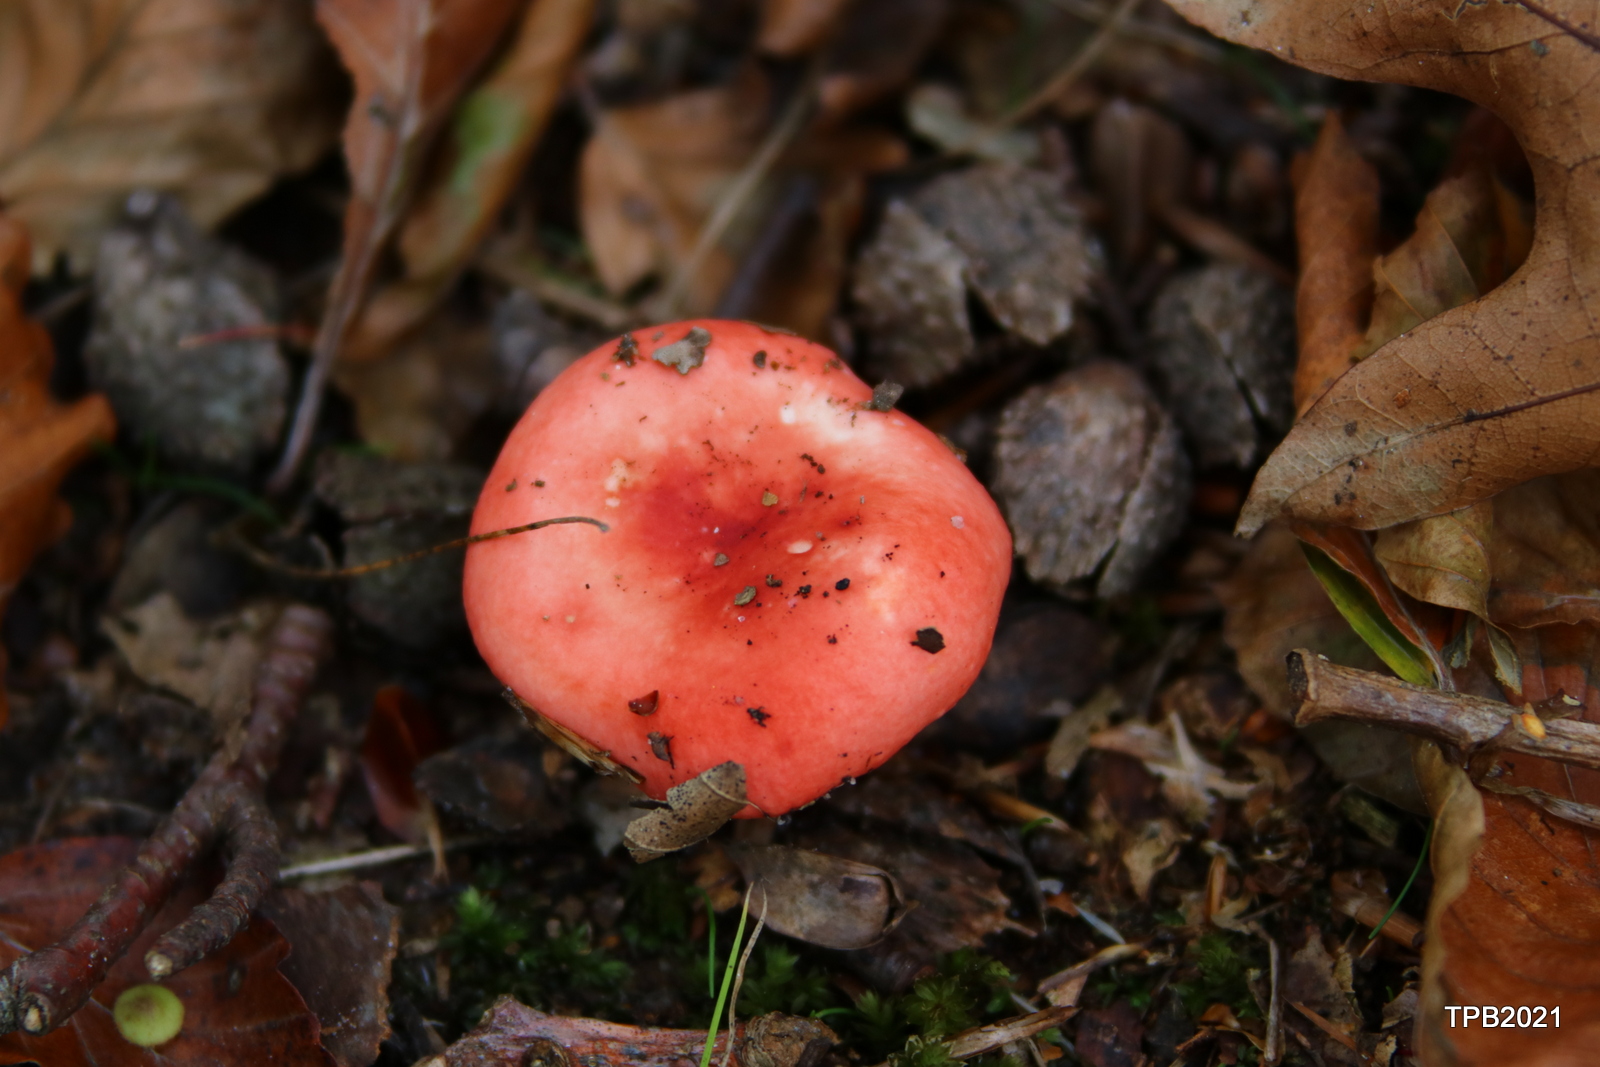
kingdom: Fungi
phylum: Basidiomycota
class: Agaricomycetes
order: Russulales
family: Russulaceae
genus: Russula
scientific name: Russula nobilis
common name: lille gift-skørhat
